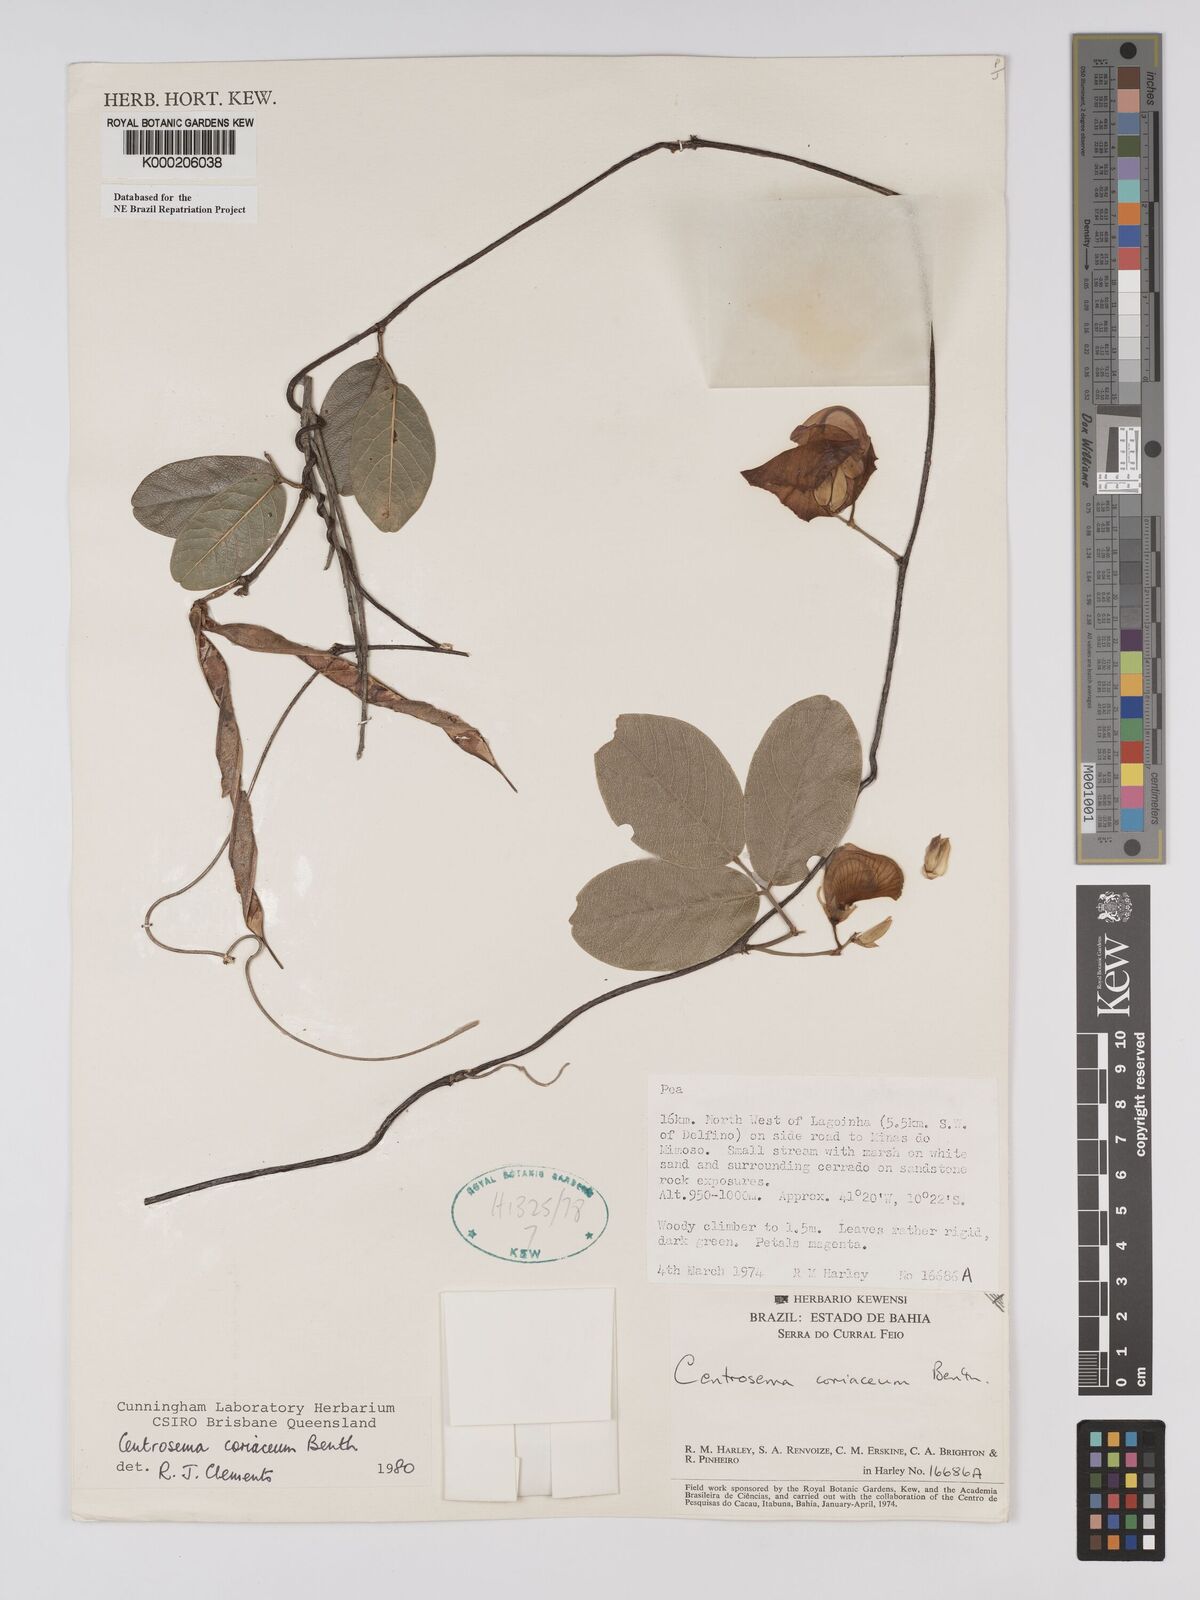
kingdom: Plantae
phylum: Tracheophyta
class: Magnoliopsida
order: Fabales
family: Fabaceae
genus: Centrosema
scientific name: Centrosema coriaceum
